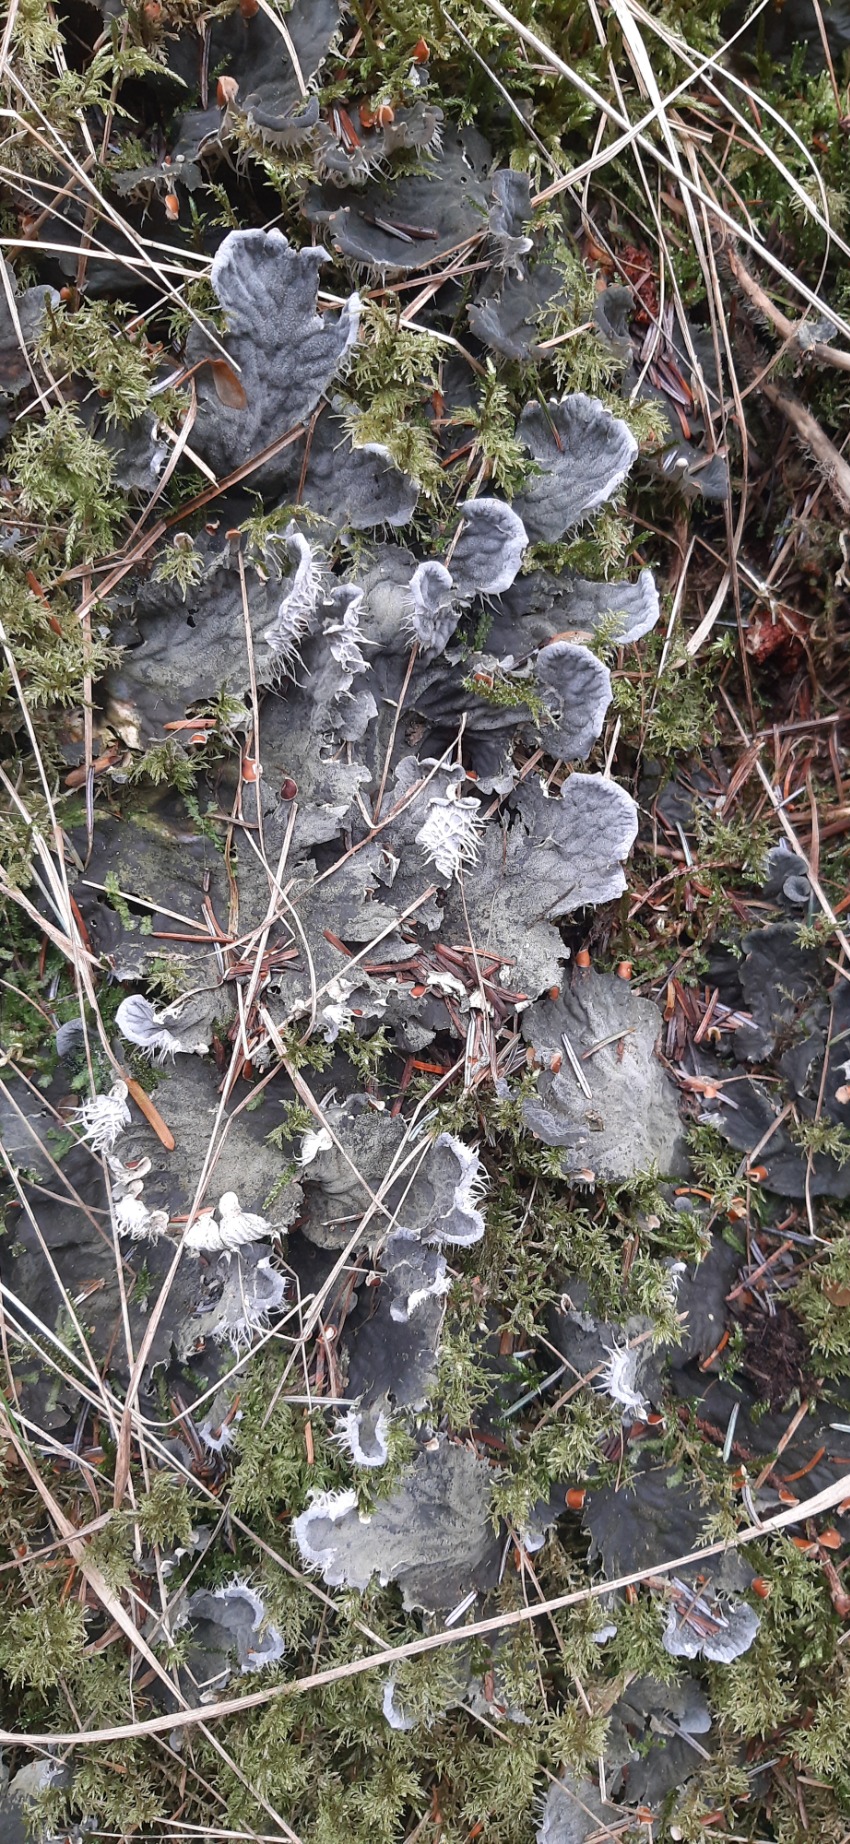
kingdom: Fungi
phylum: Ascomycota
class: Lecanoromycetes
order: Peltigerales
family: Peltigeraceae
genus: Peltigera
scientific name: Peltigera membranacea
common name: Tynd skjoldlav
